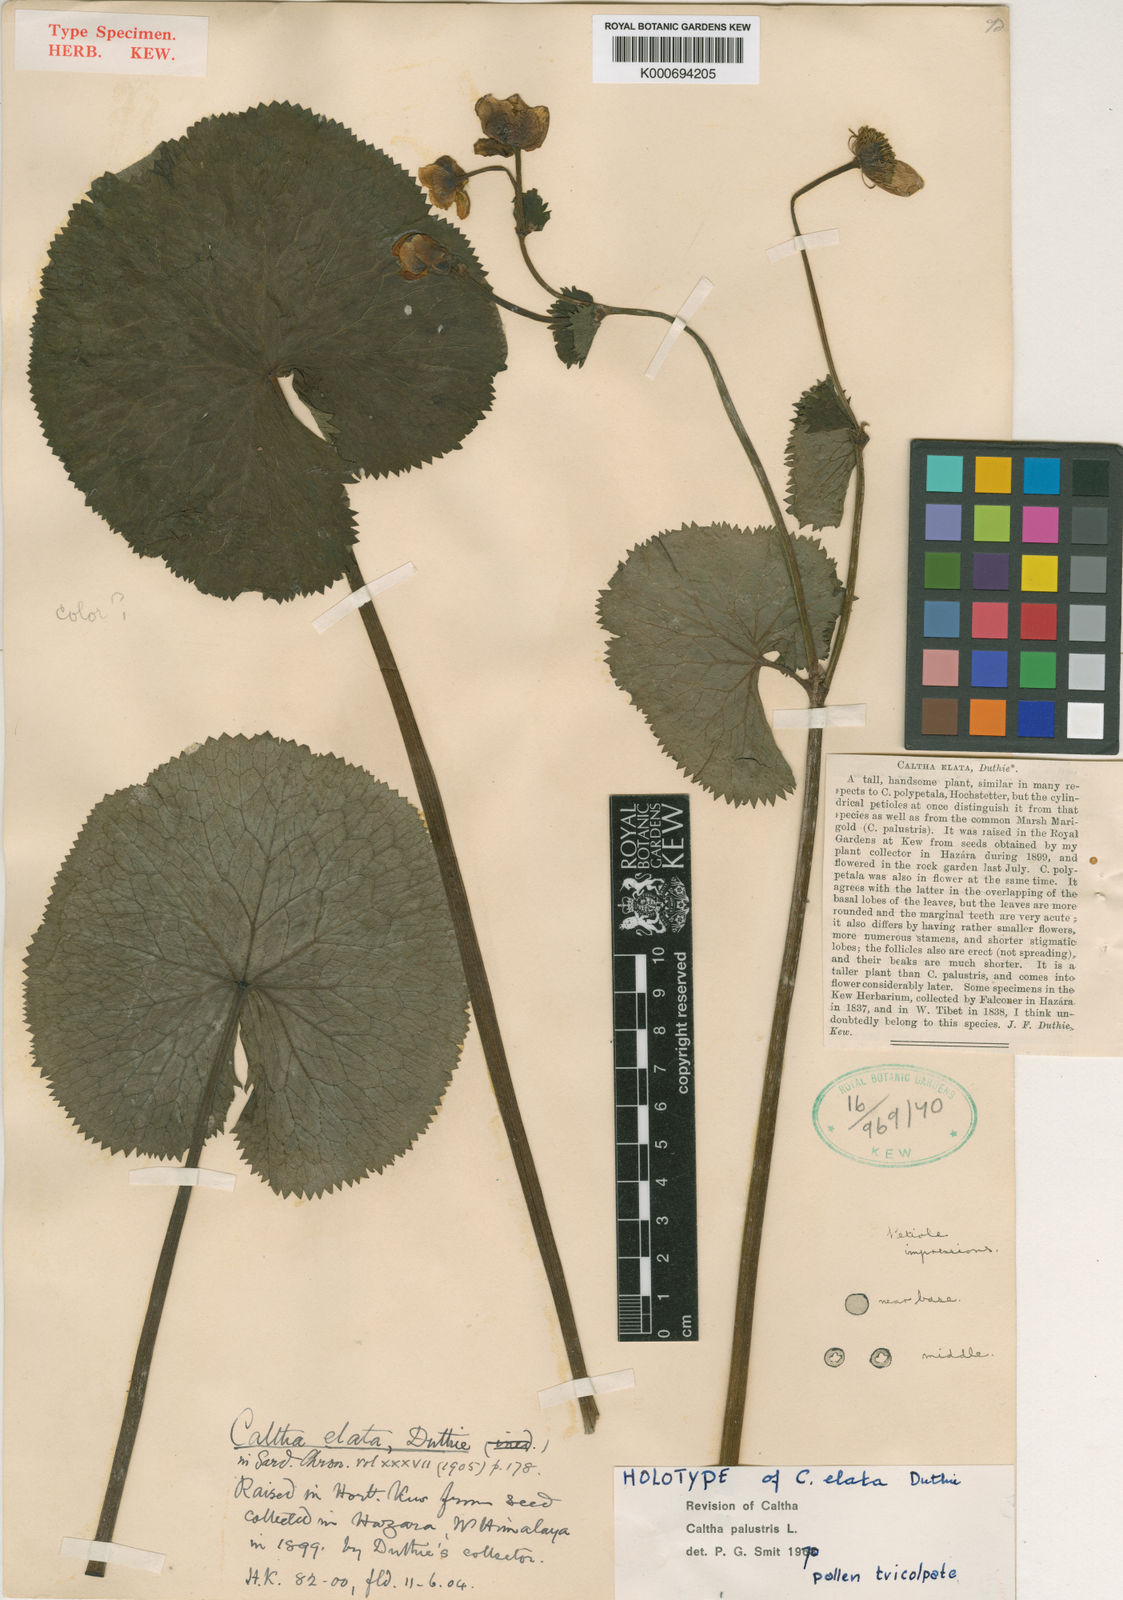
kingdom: Plantae
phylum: Tracheophyta
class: Magnoliopsida
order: Ranunculales
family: Ranunculaceae
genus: Caltha
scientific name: Caltha palustris
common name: Marsh marigold
